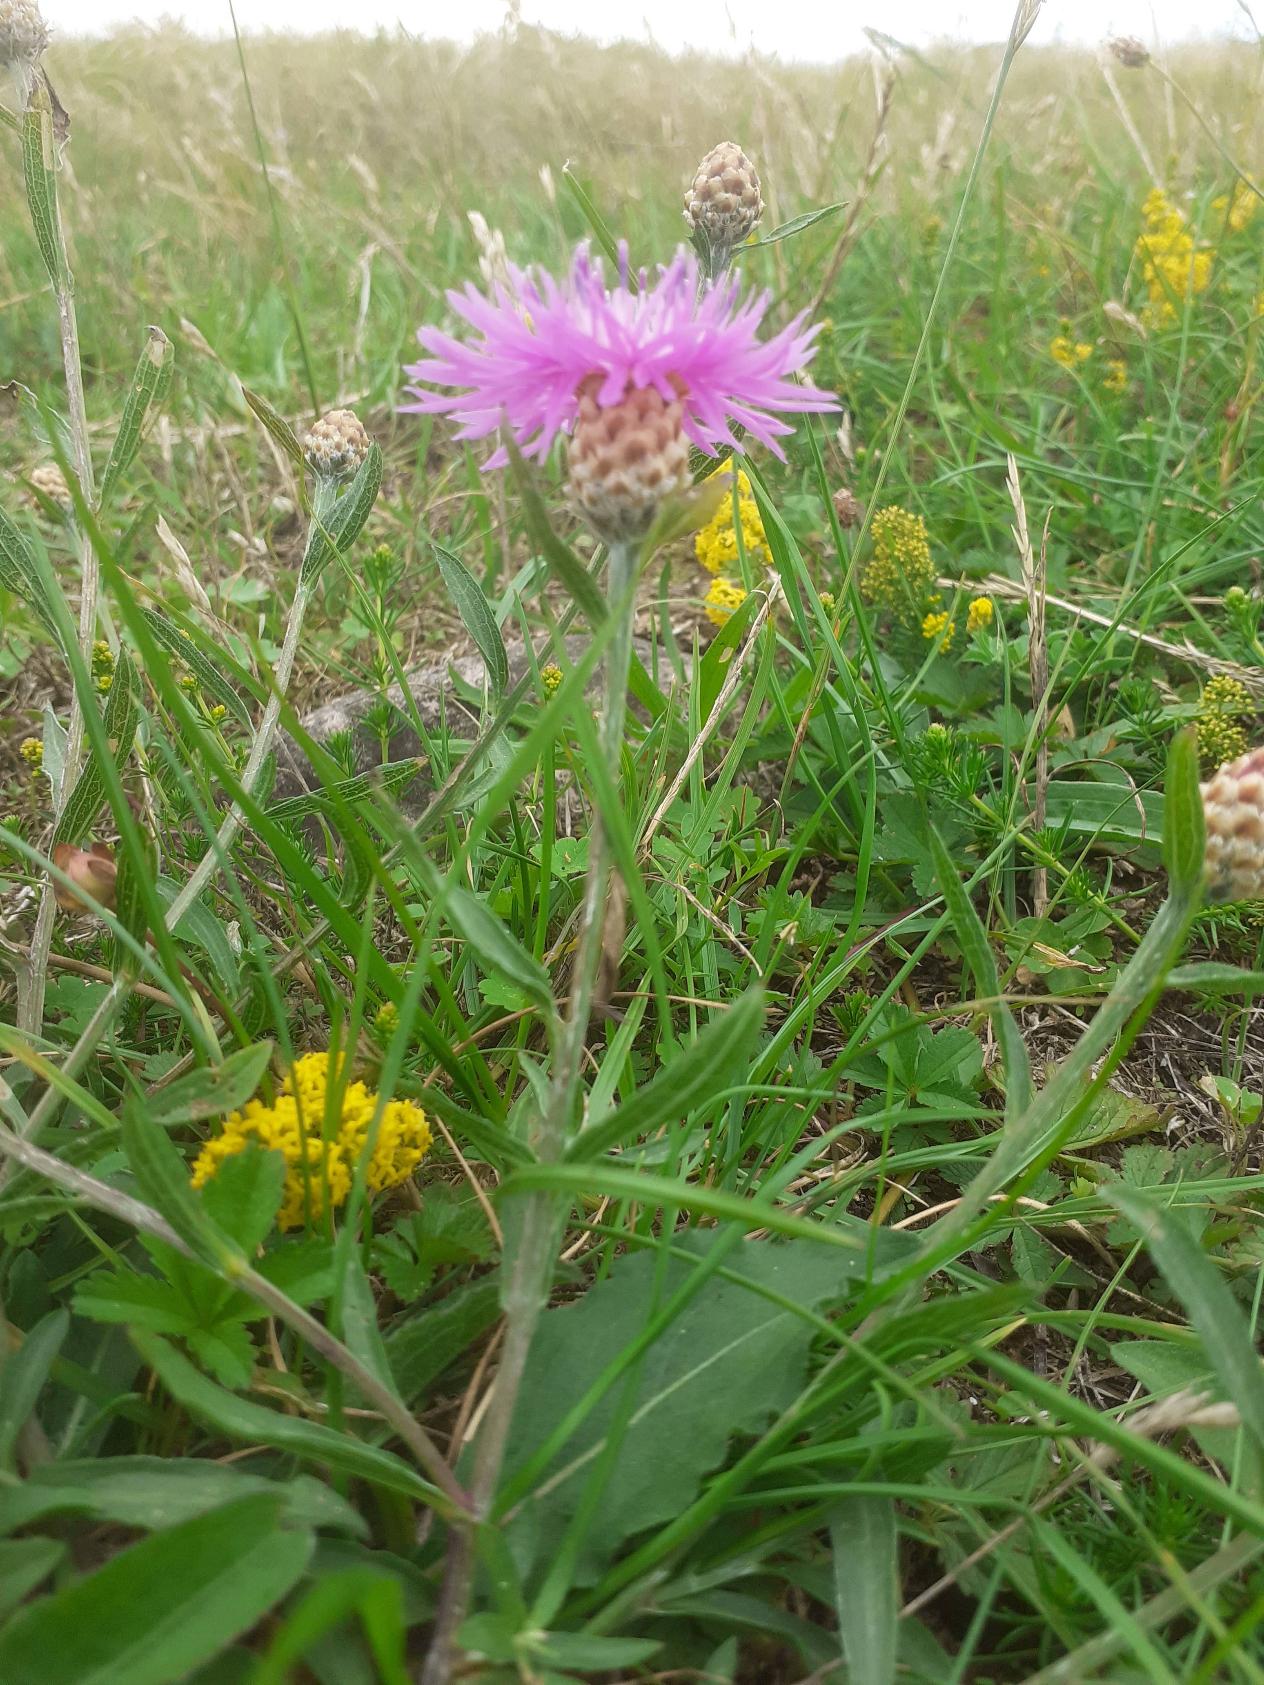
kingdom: Plantae
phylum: Tracheophyta
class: Magnoliopsida
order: Asterales
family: Asteraceae
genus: Centaurea
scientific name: Centaurea jacea
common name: Almindelig knopurt
